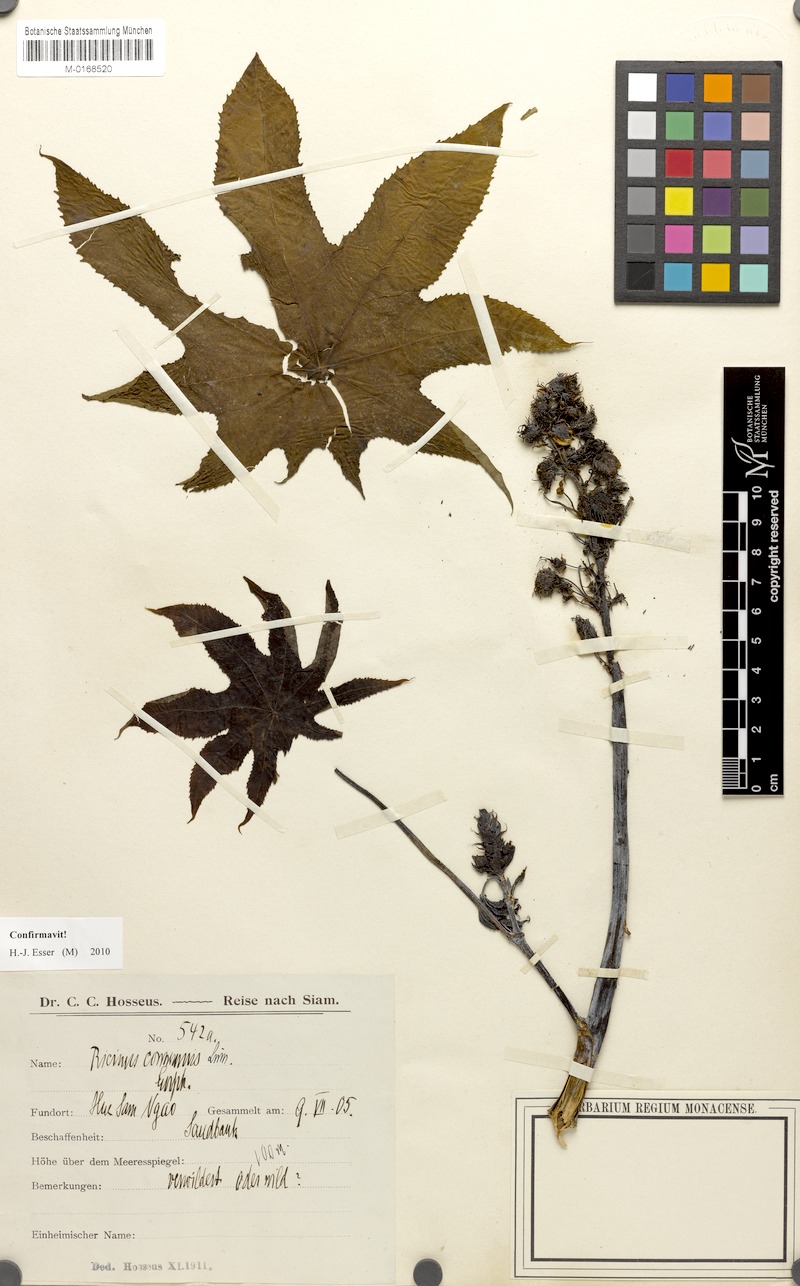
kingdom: Plantae
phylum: Tracheophyta
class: Magnoliopsida
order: Malpighiales
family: Euphorbiaceae
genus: Ricinus
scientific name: Ricinus communis
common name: Castor-oil-plant
